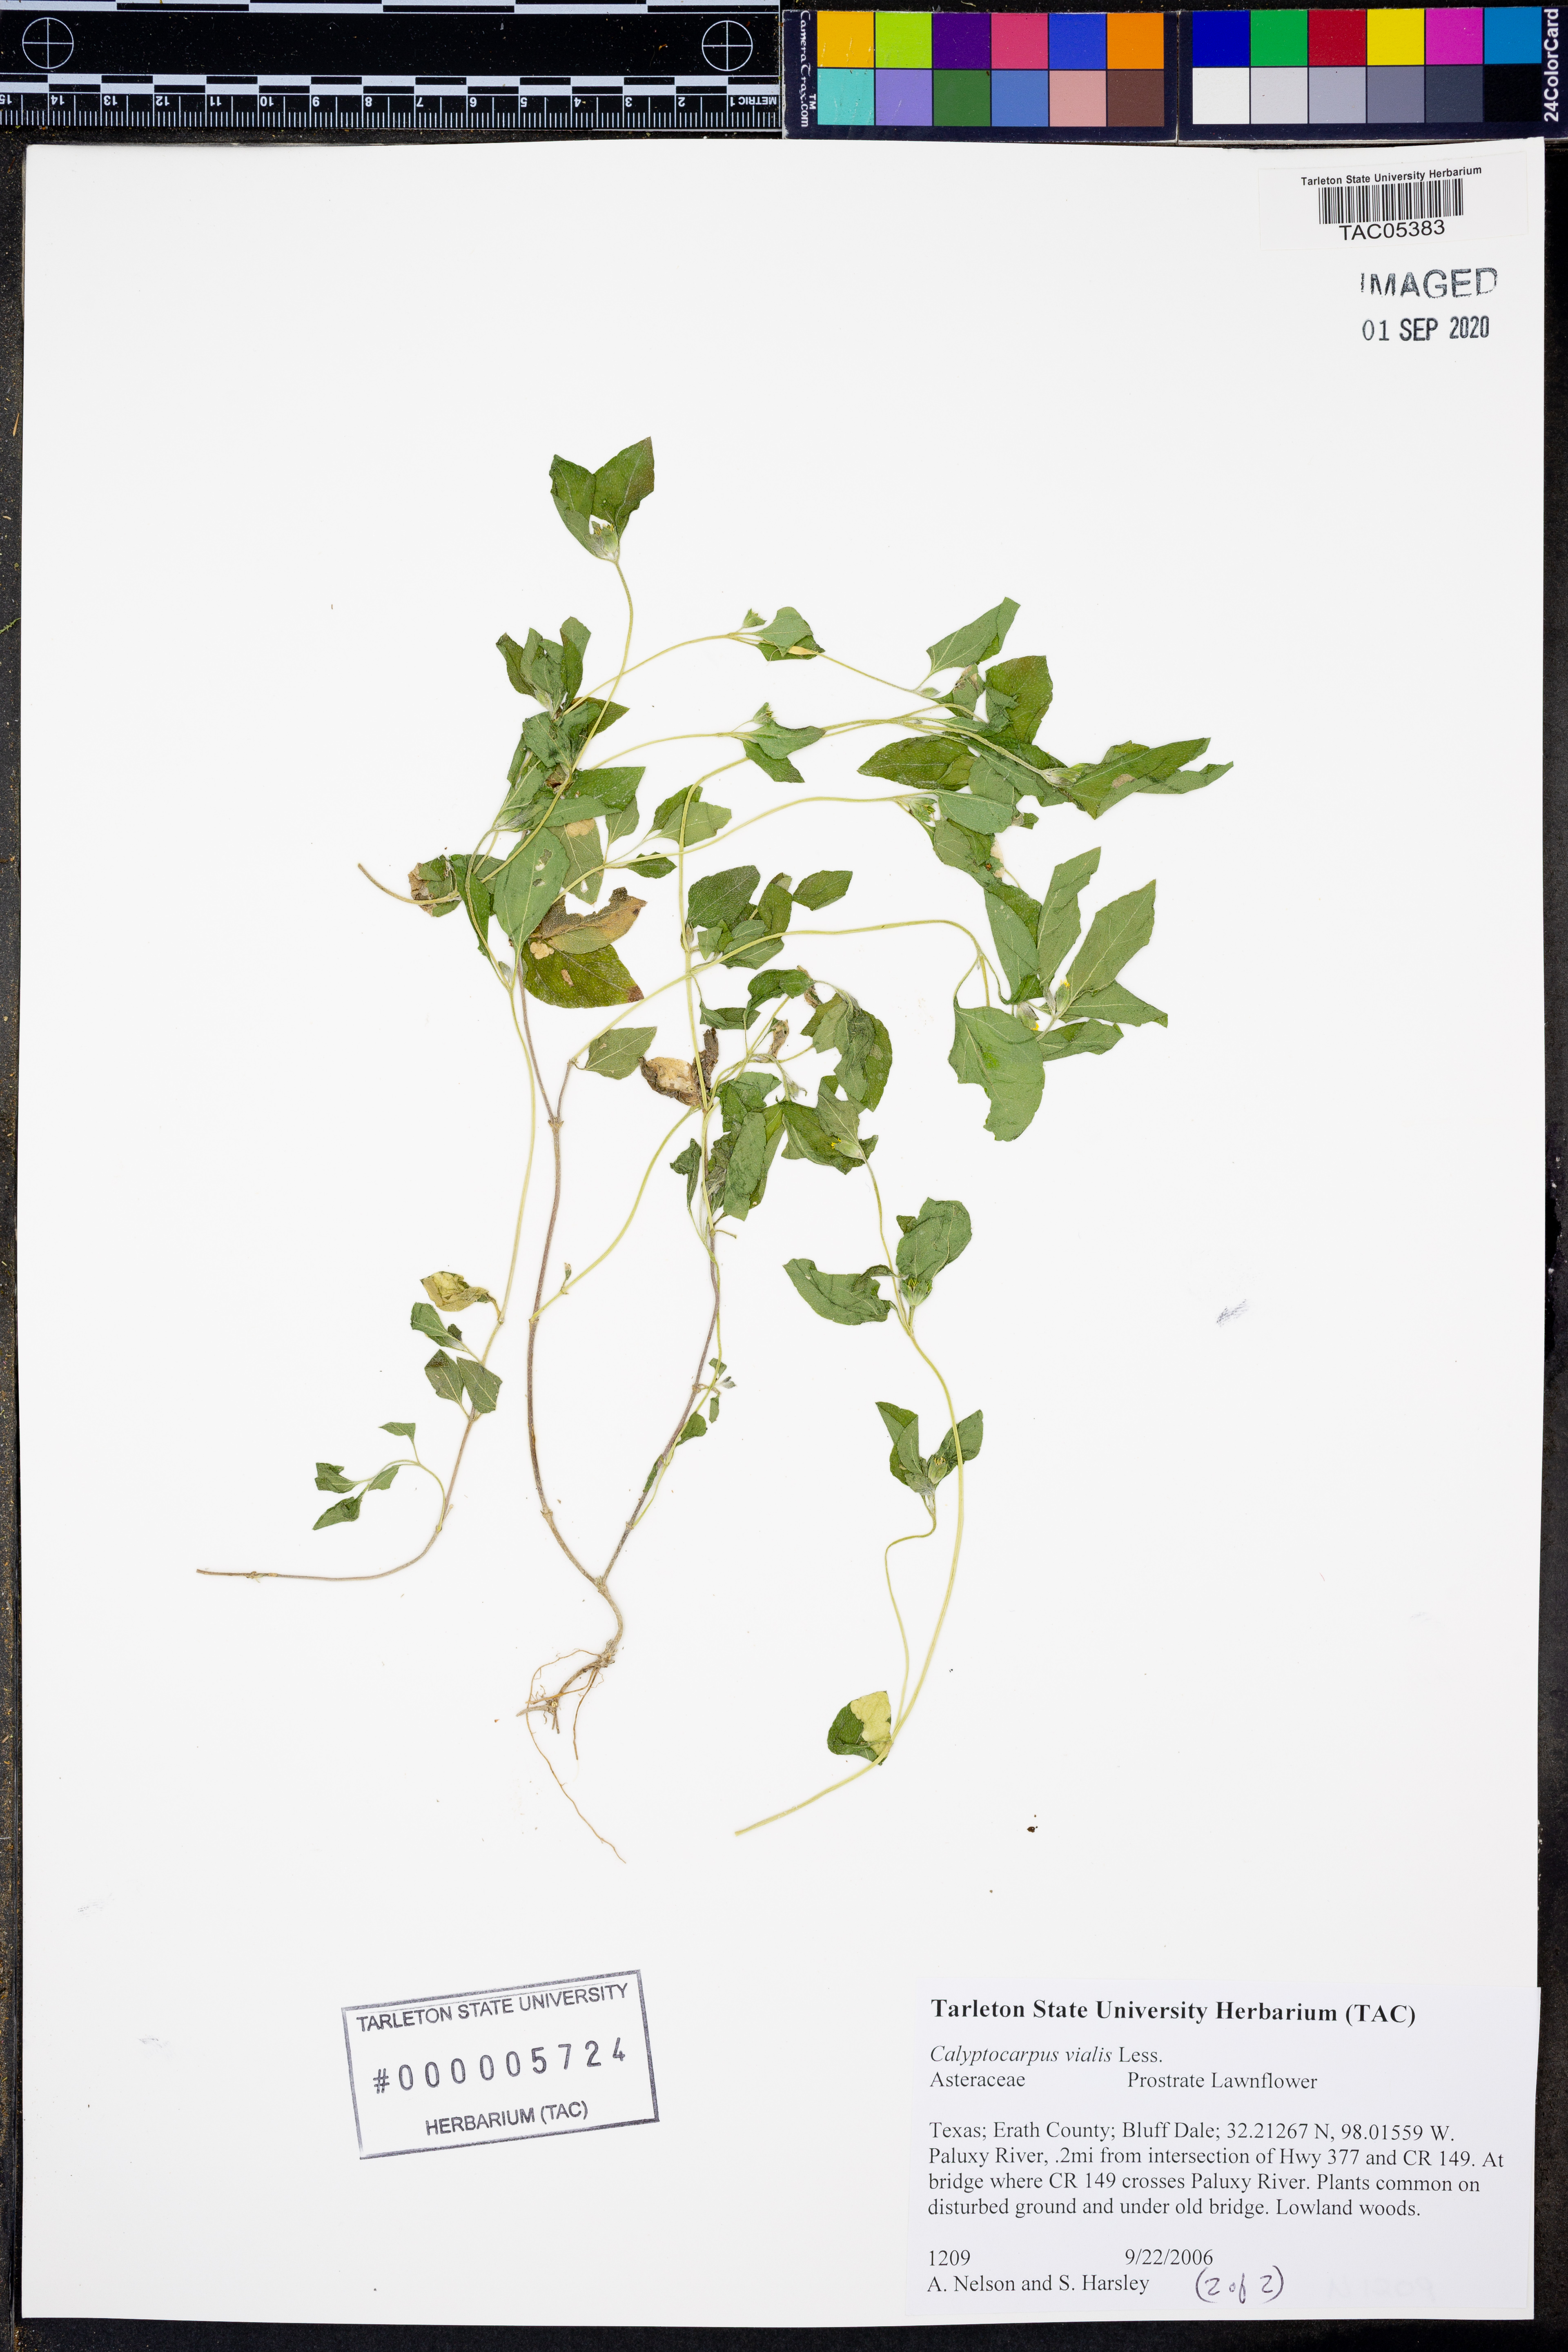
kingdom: Plantae
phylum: Tracheophyta
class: Magnoliopsida
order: Asterales
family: Asteraceae
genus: Calyptocarpus
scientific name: Calyptocarpus vialis
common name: Straggler daisy
